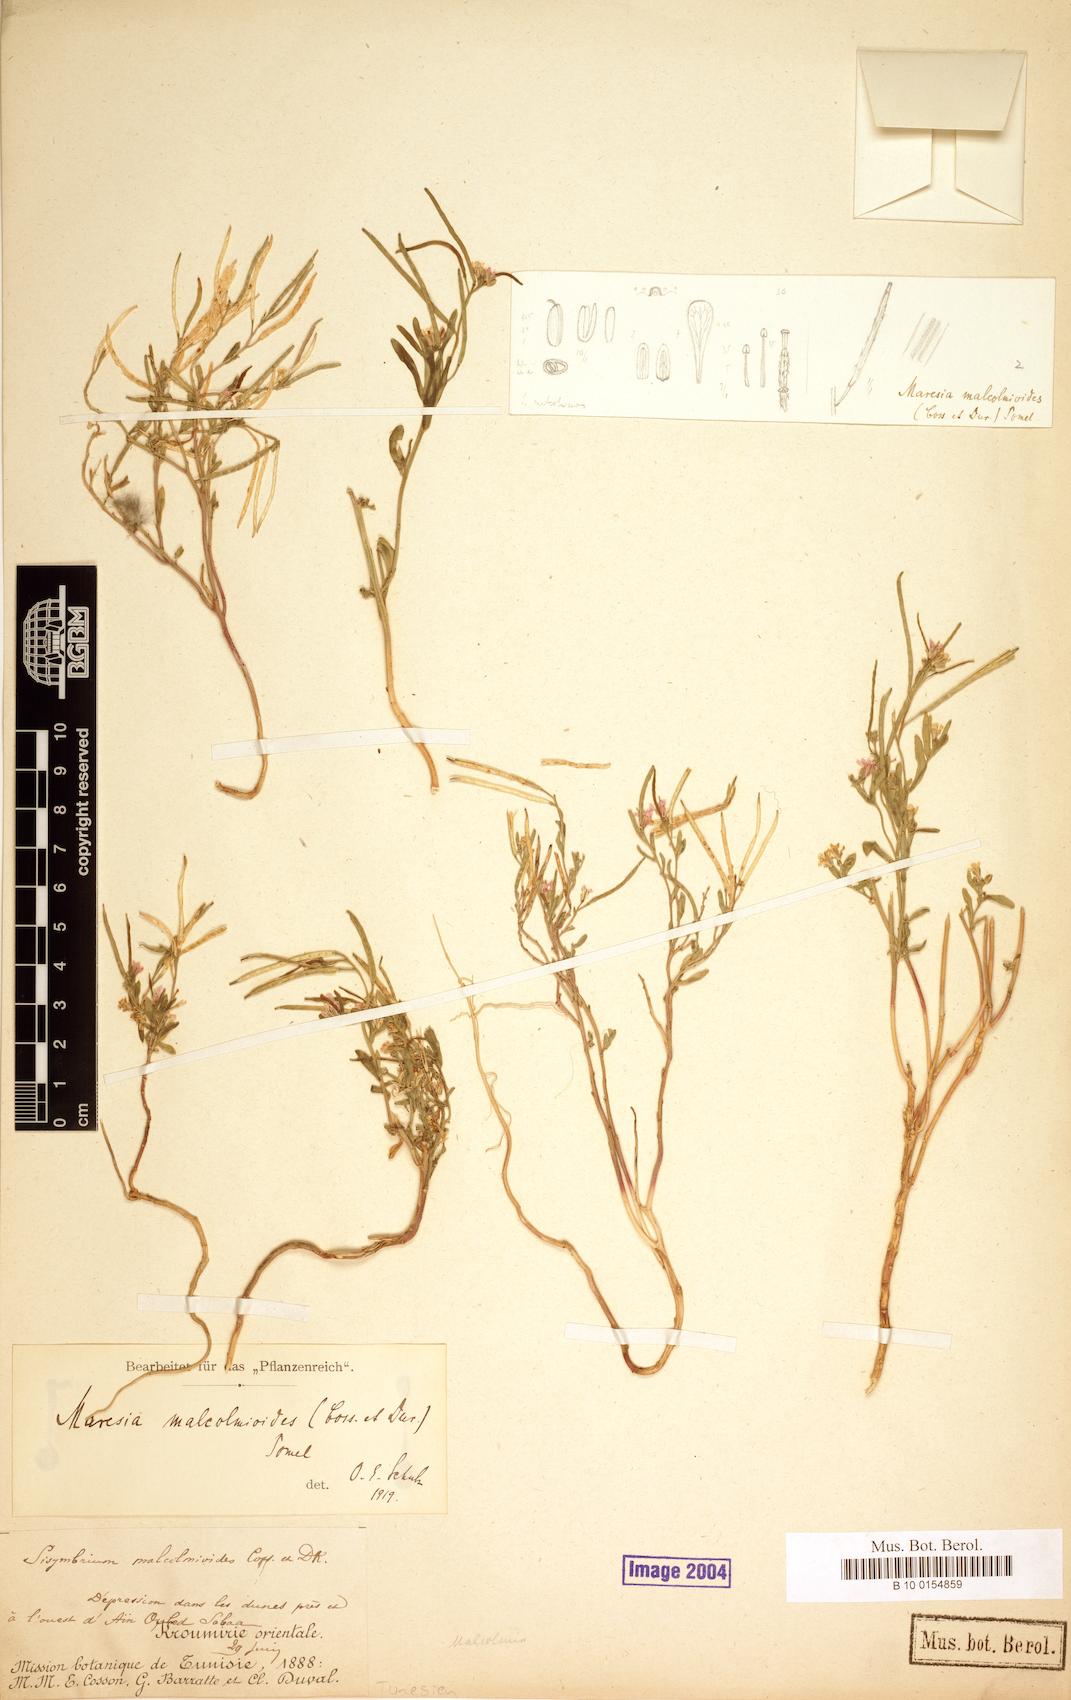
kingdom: Plantae
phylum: Tracheophyta
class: Magnoliopsida
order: Brassicales
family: Brassicaceae
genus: Maresia
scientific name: Maresia malcolmioides
